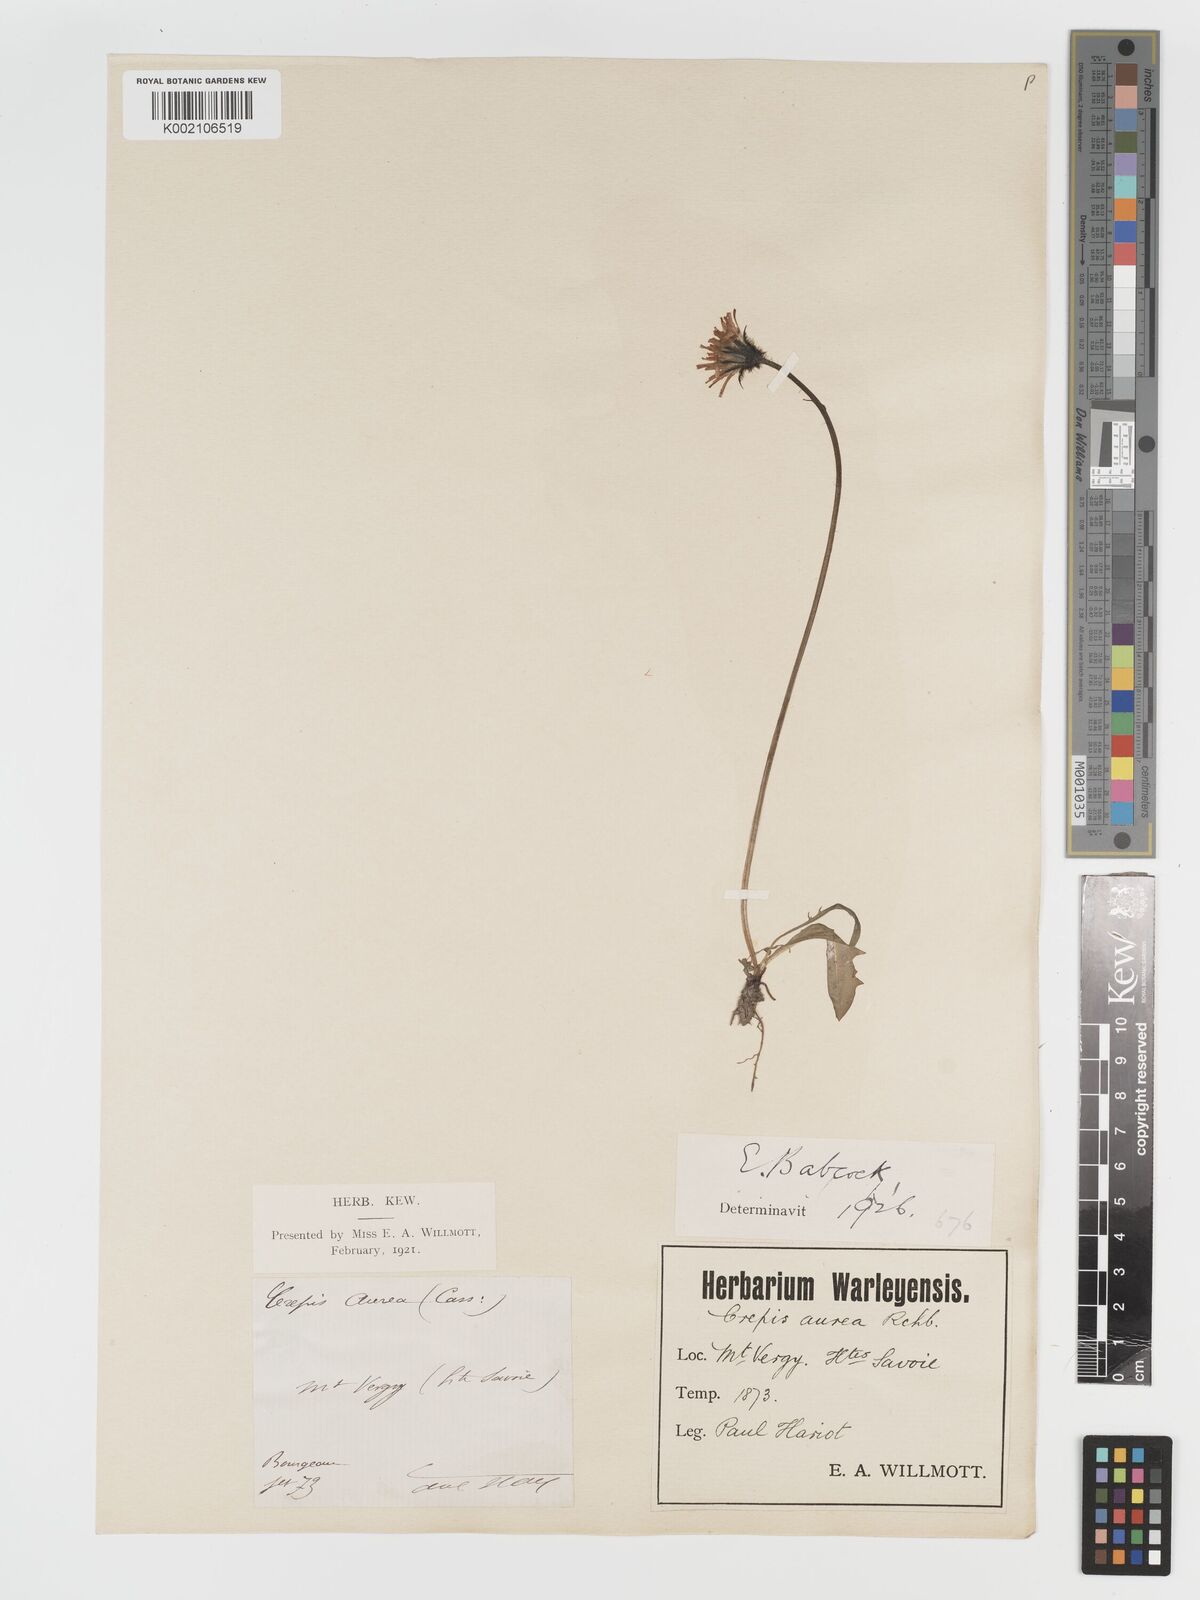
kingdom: Plantae
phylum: Tracheophyta
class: Magnoliopsida
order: Asterales
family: Asteraceae
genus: Crepis
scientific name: Crepis aurea
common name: Golden hawk's-beard
